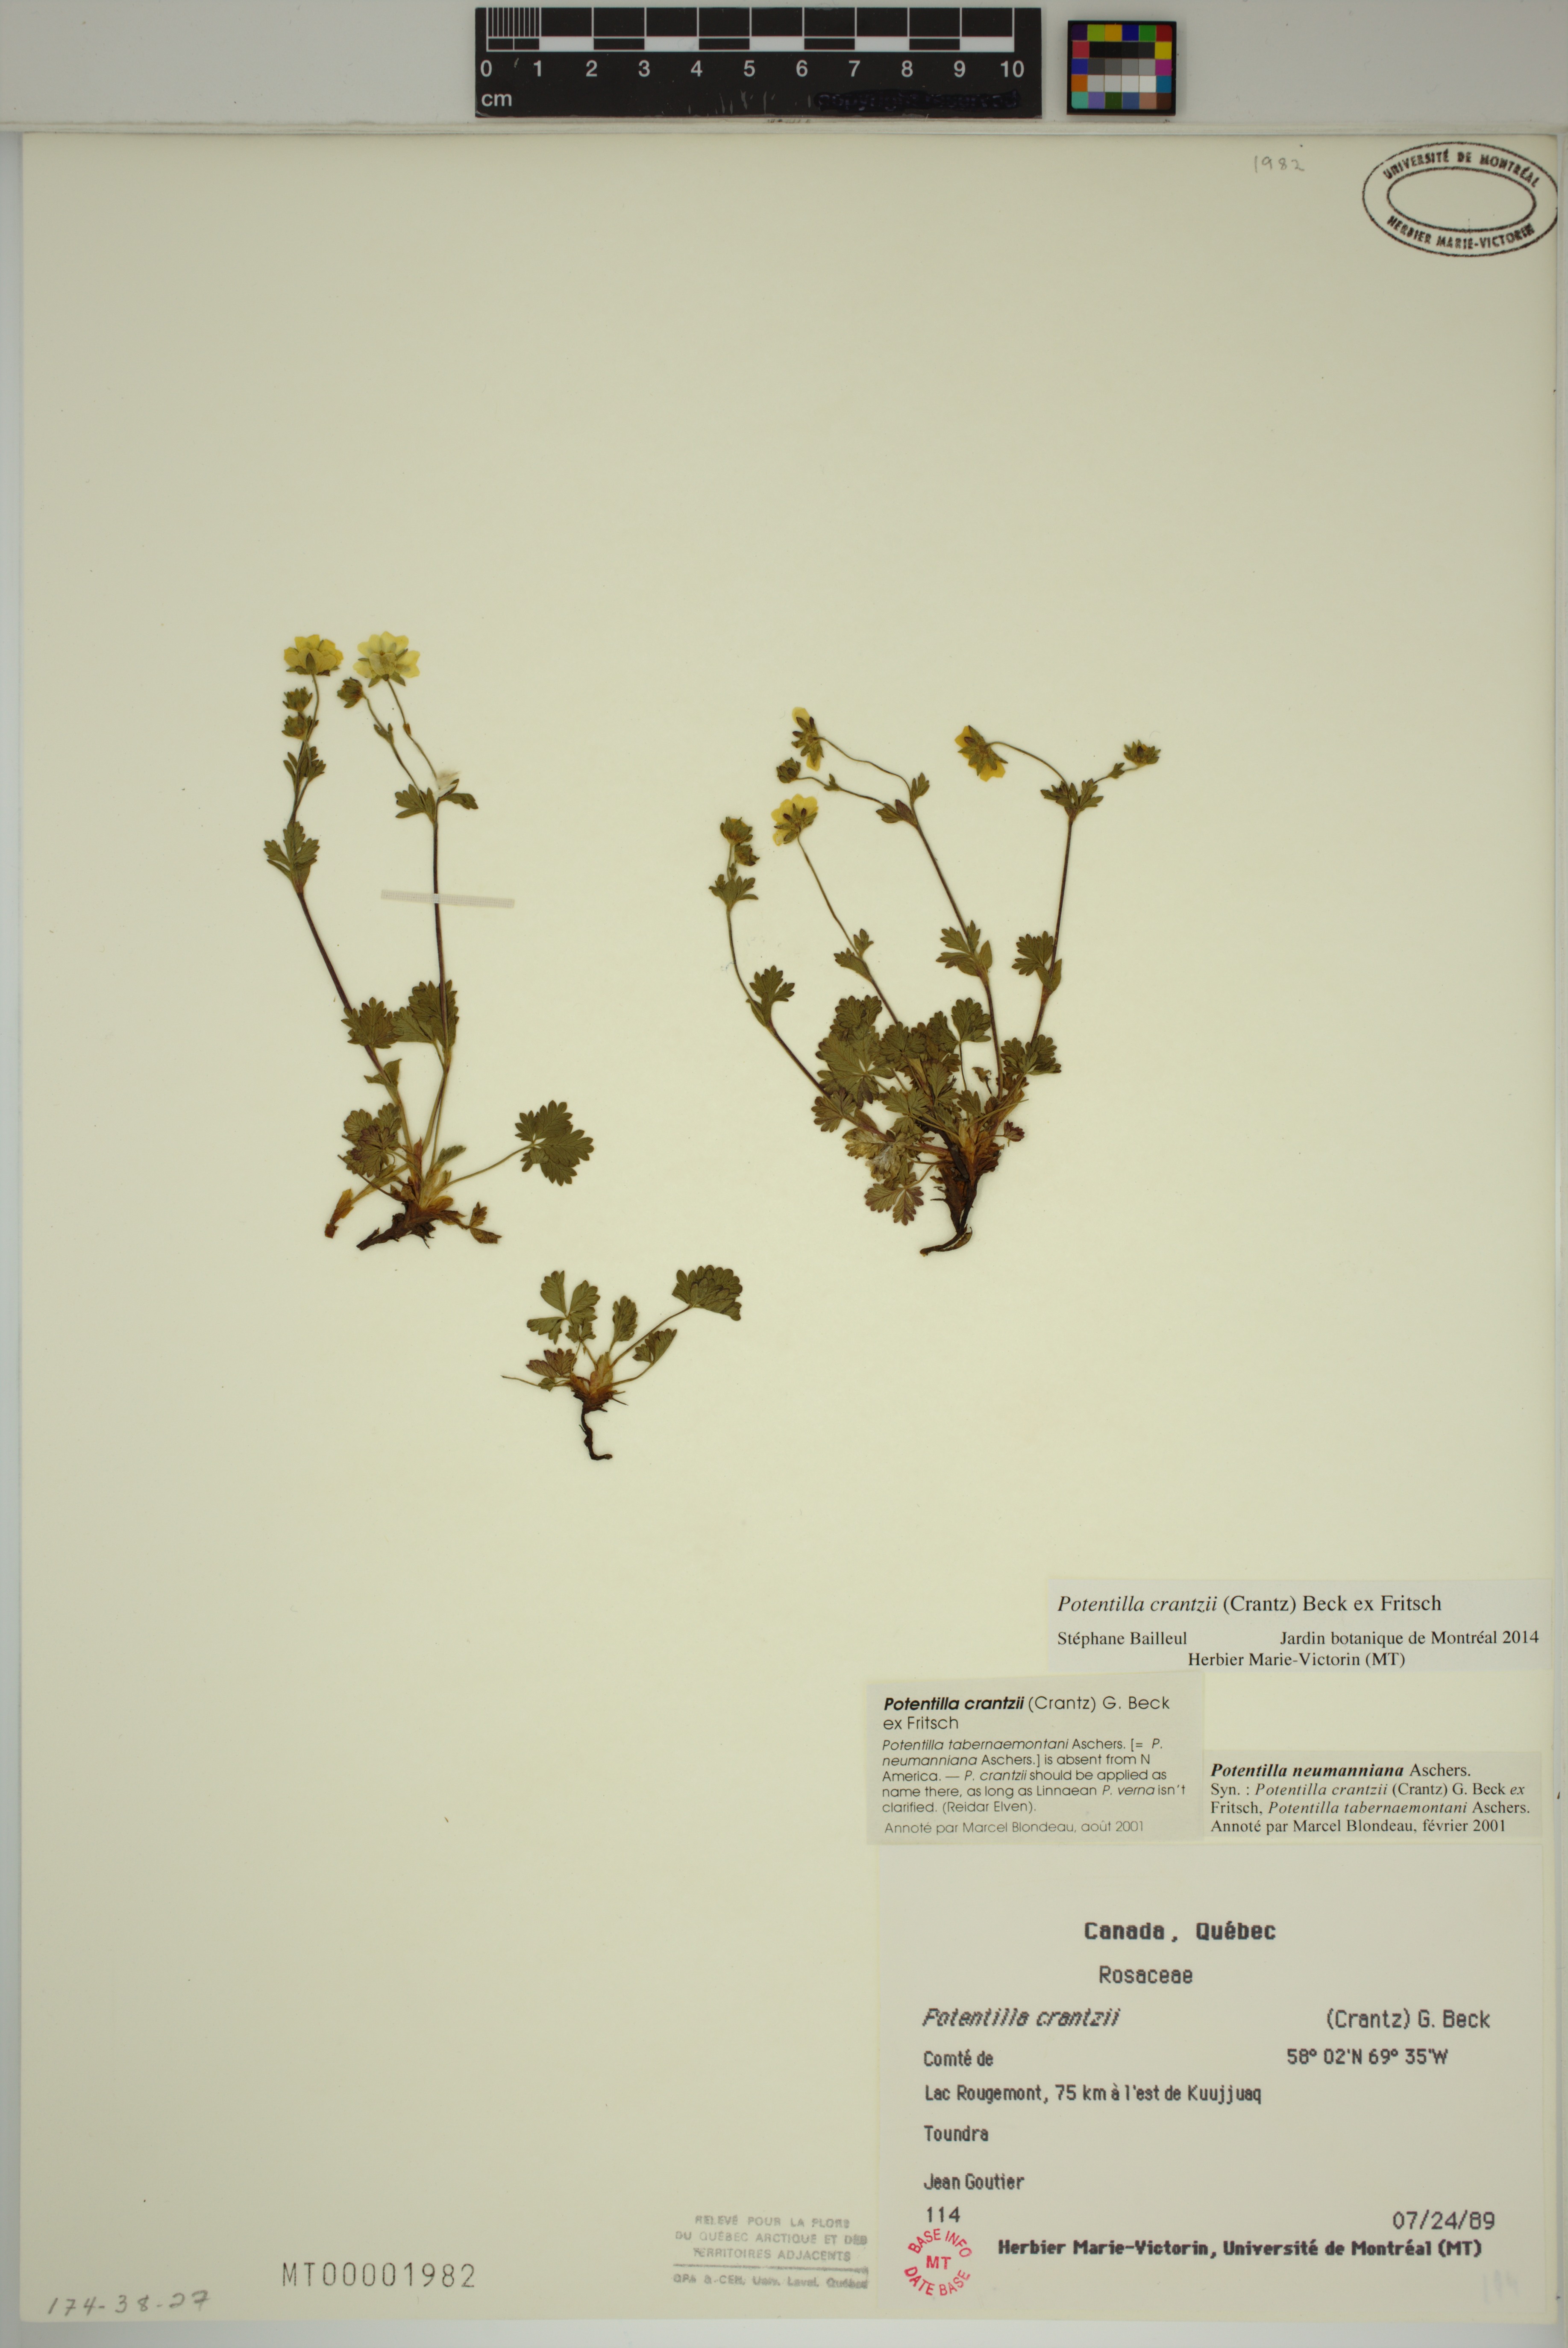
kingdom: Plantae
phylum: Tracheophyta
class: Magnoliopsida
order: Rosales
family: Rosaceae
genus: Potentilla
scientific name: Potentilla crantzii
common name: Alpine cinquefoil
